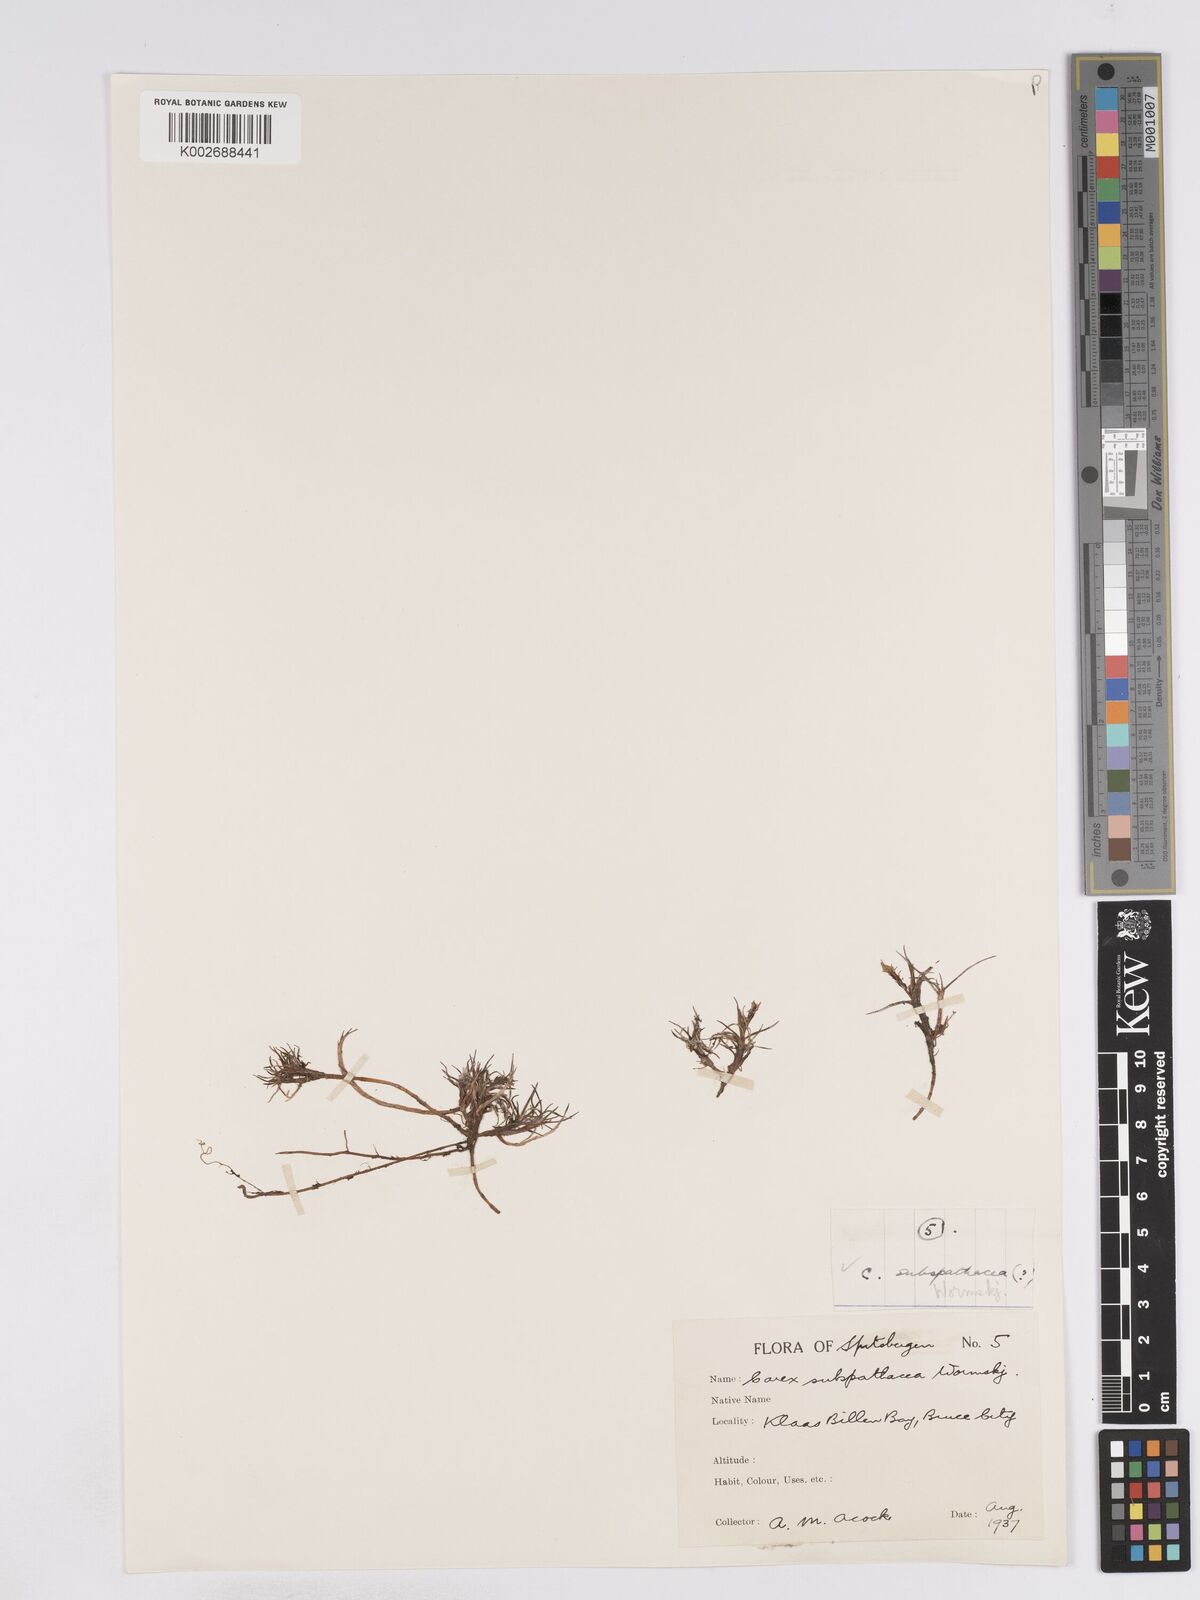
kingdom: Plantae
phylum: Tracheophyta
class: Liliopsida
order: Poales
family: Cyperaceae
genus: Carex
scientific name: Carex subspathacea
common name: Hoppner's sedge
